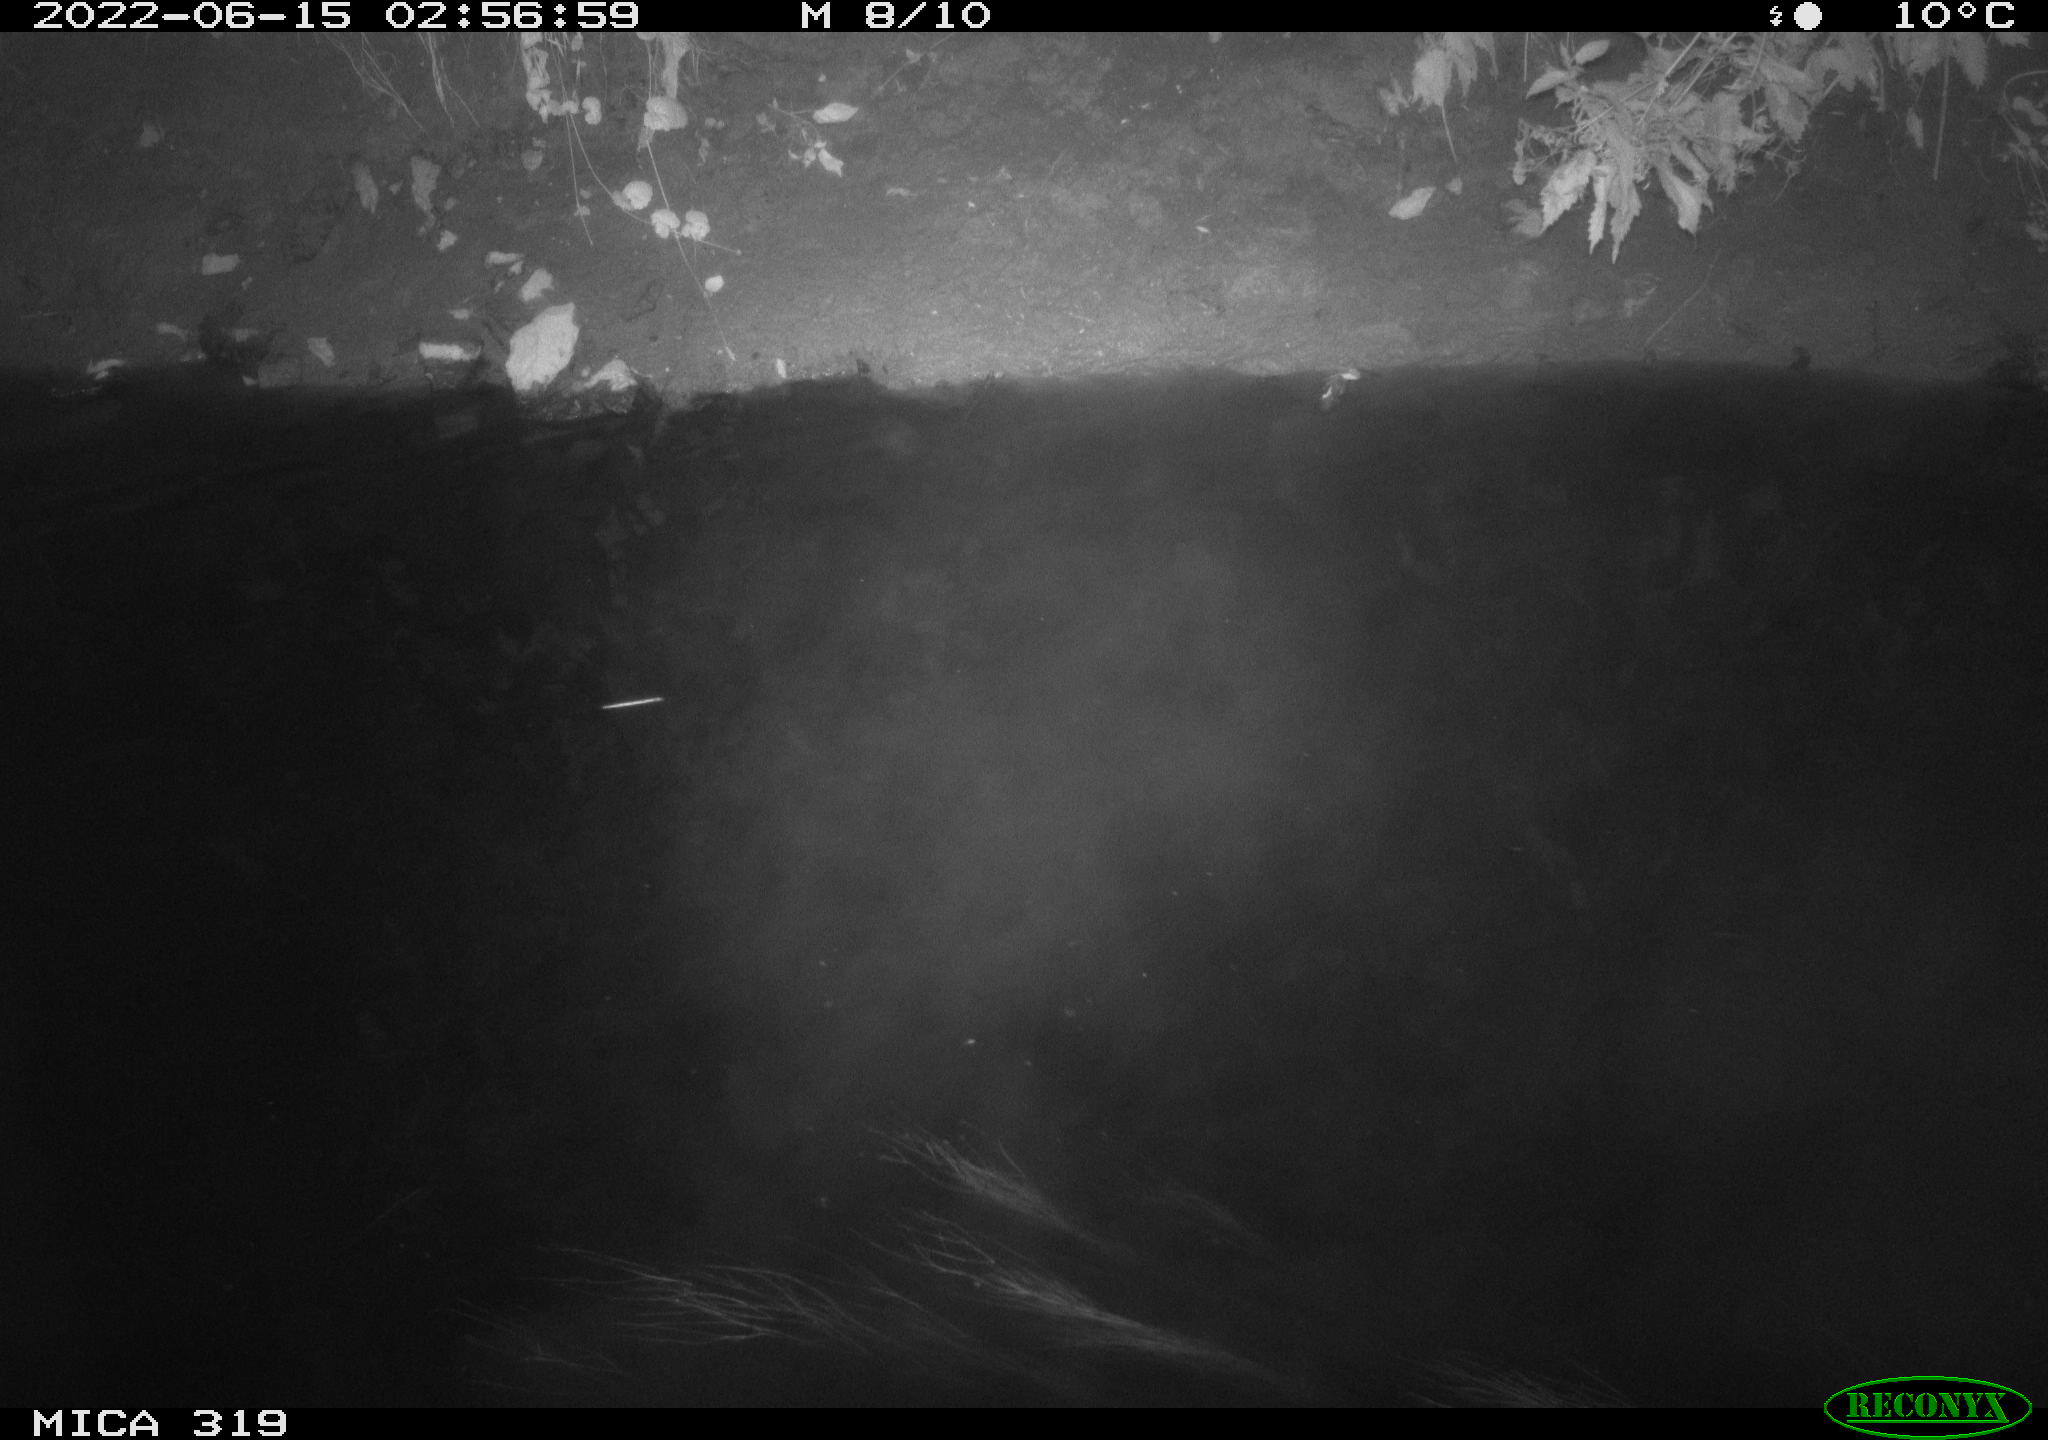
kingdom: Animalia
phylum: Chordata
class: Aves
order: Anseriformes
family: Anatidae
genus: Anas
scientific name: Anas
